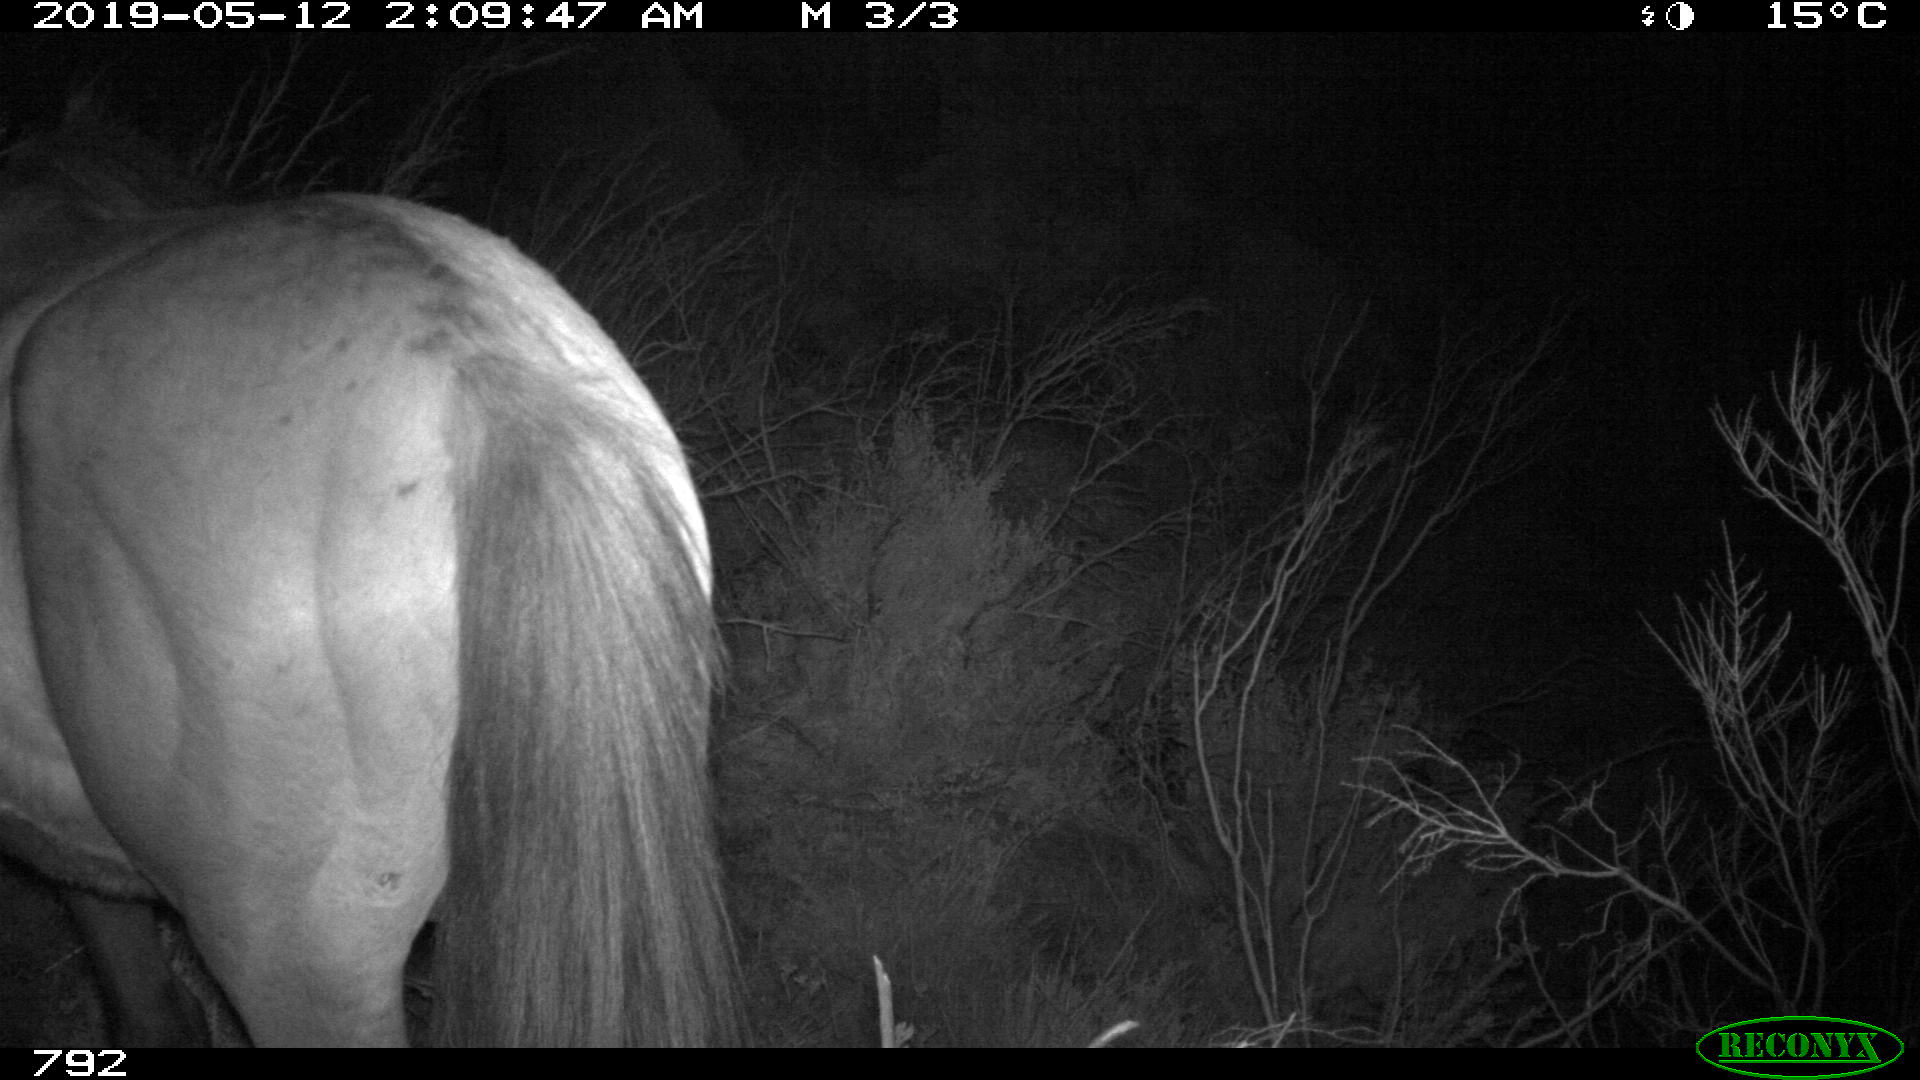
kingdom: Animalia
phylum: Chordata
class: Mammalia
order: Perissodactyla
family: Equidae
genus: Equus
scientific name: Equus caballus
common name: Horse
